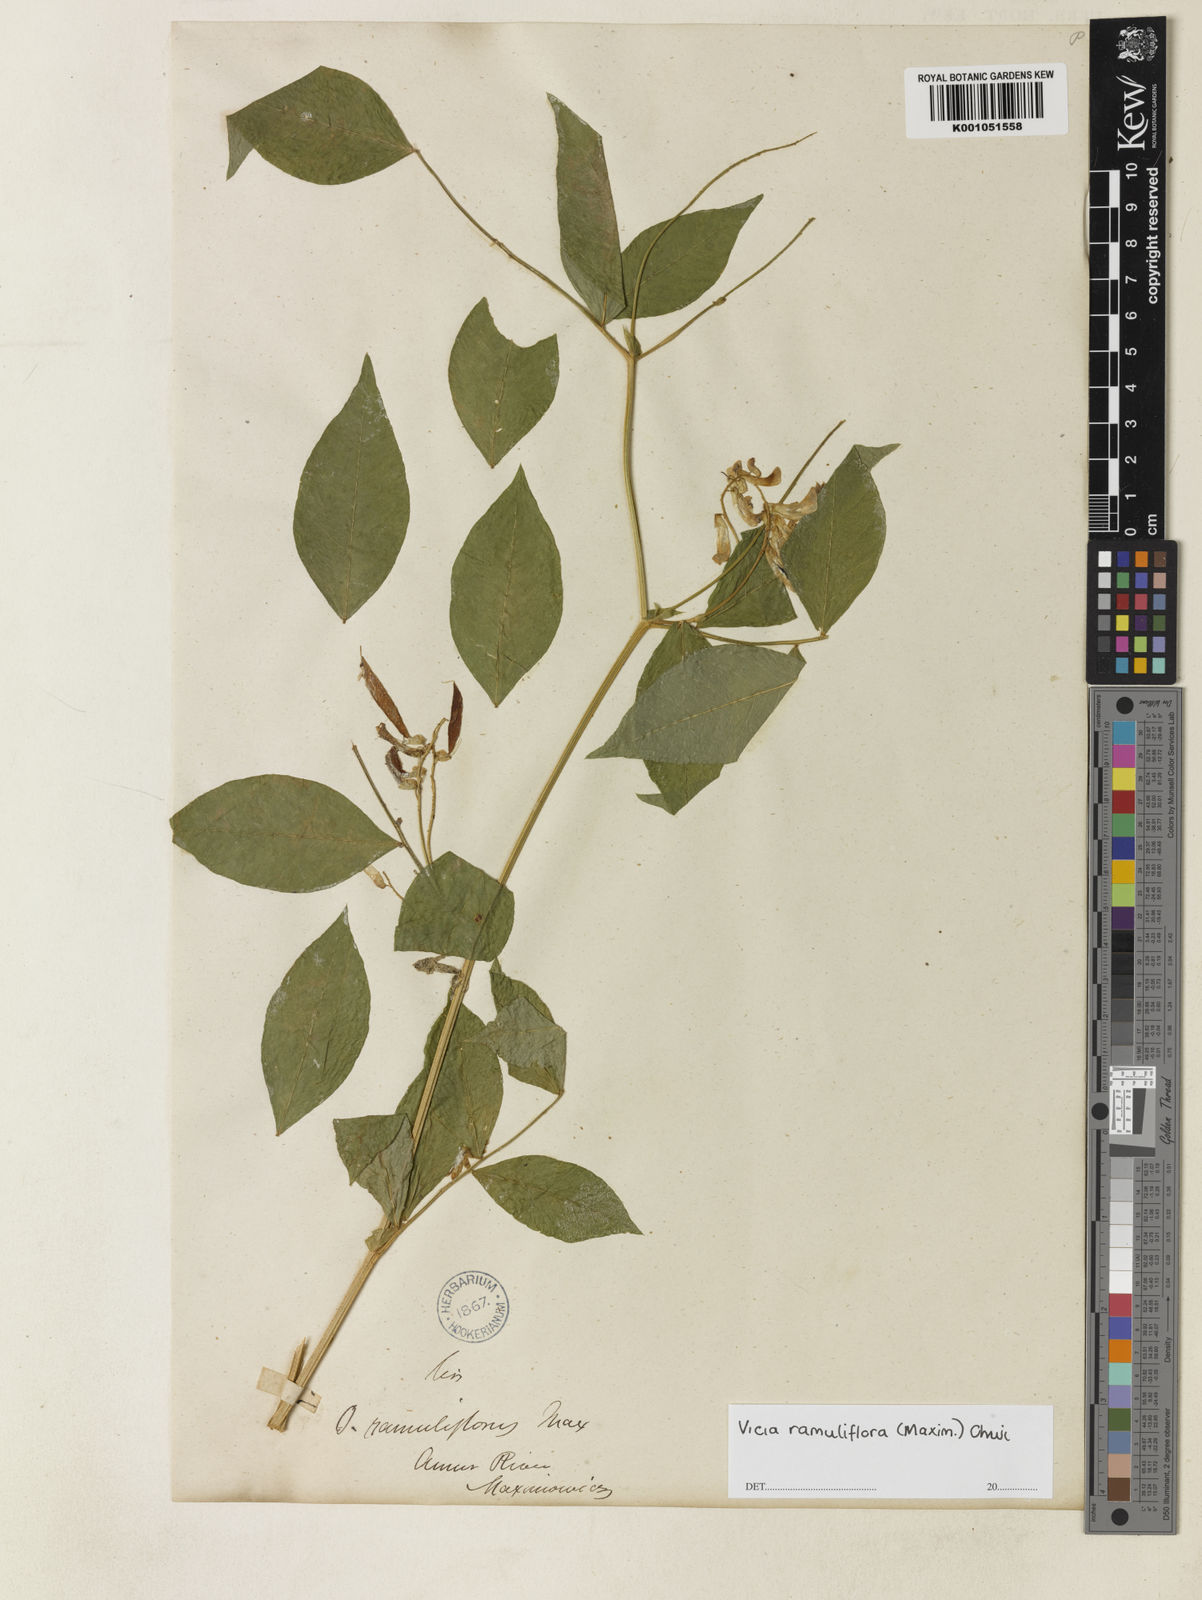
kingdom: Plantae
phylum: Tracheophyta
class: Magnoliopsida
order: Fabales
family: Fabaceae
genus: Vicia
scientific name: Vicia ramuliflora
